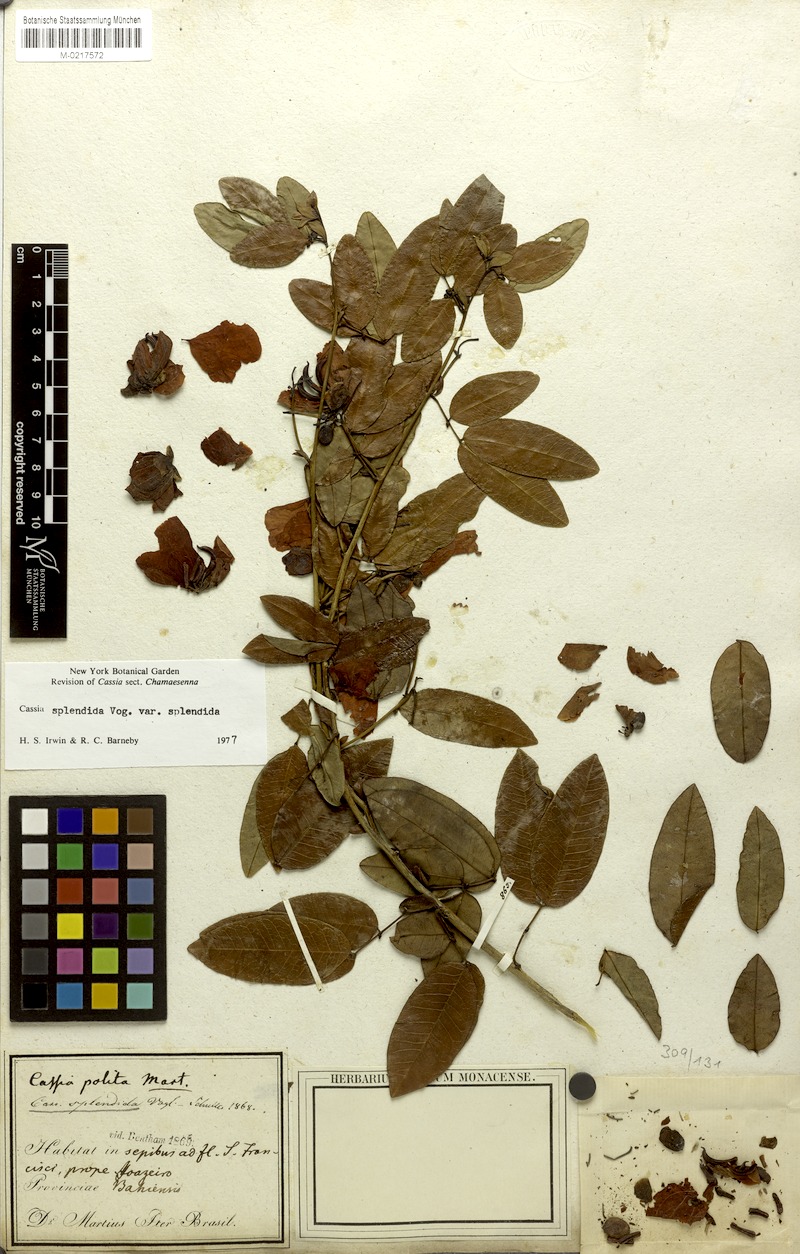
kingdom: Plantae
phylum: Tracheophyta
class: Magnoliopsida
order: Fabales
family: Fabaceae
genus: Senna
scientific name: Senna splendida
